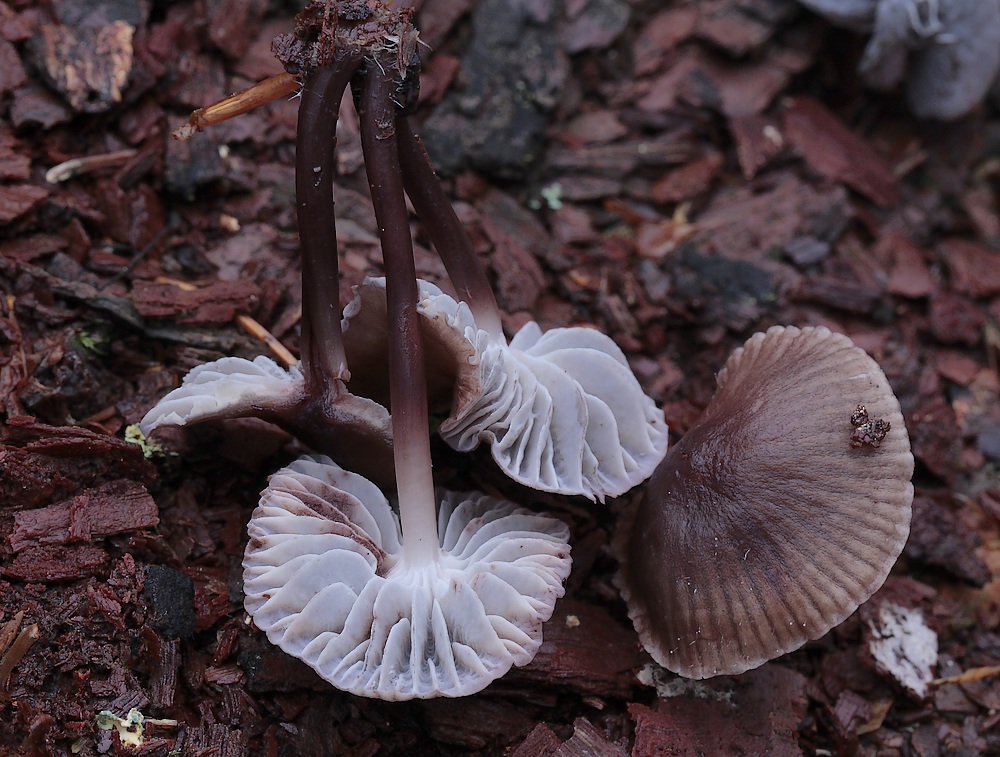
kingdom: Fungi
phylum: Basidiomycota
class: Agaricomycetes
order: Agaricales
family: Mycenaceae
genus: Mycena
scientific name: Mycena maculata
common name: rødplettet huesvamp
